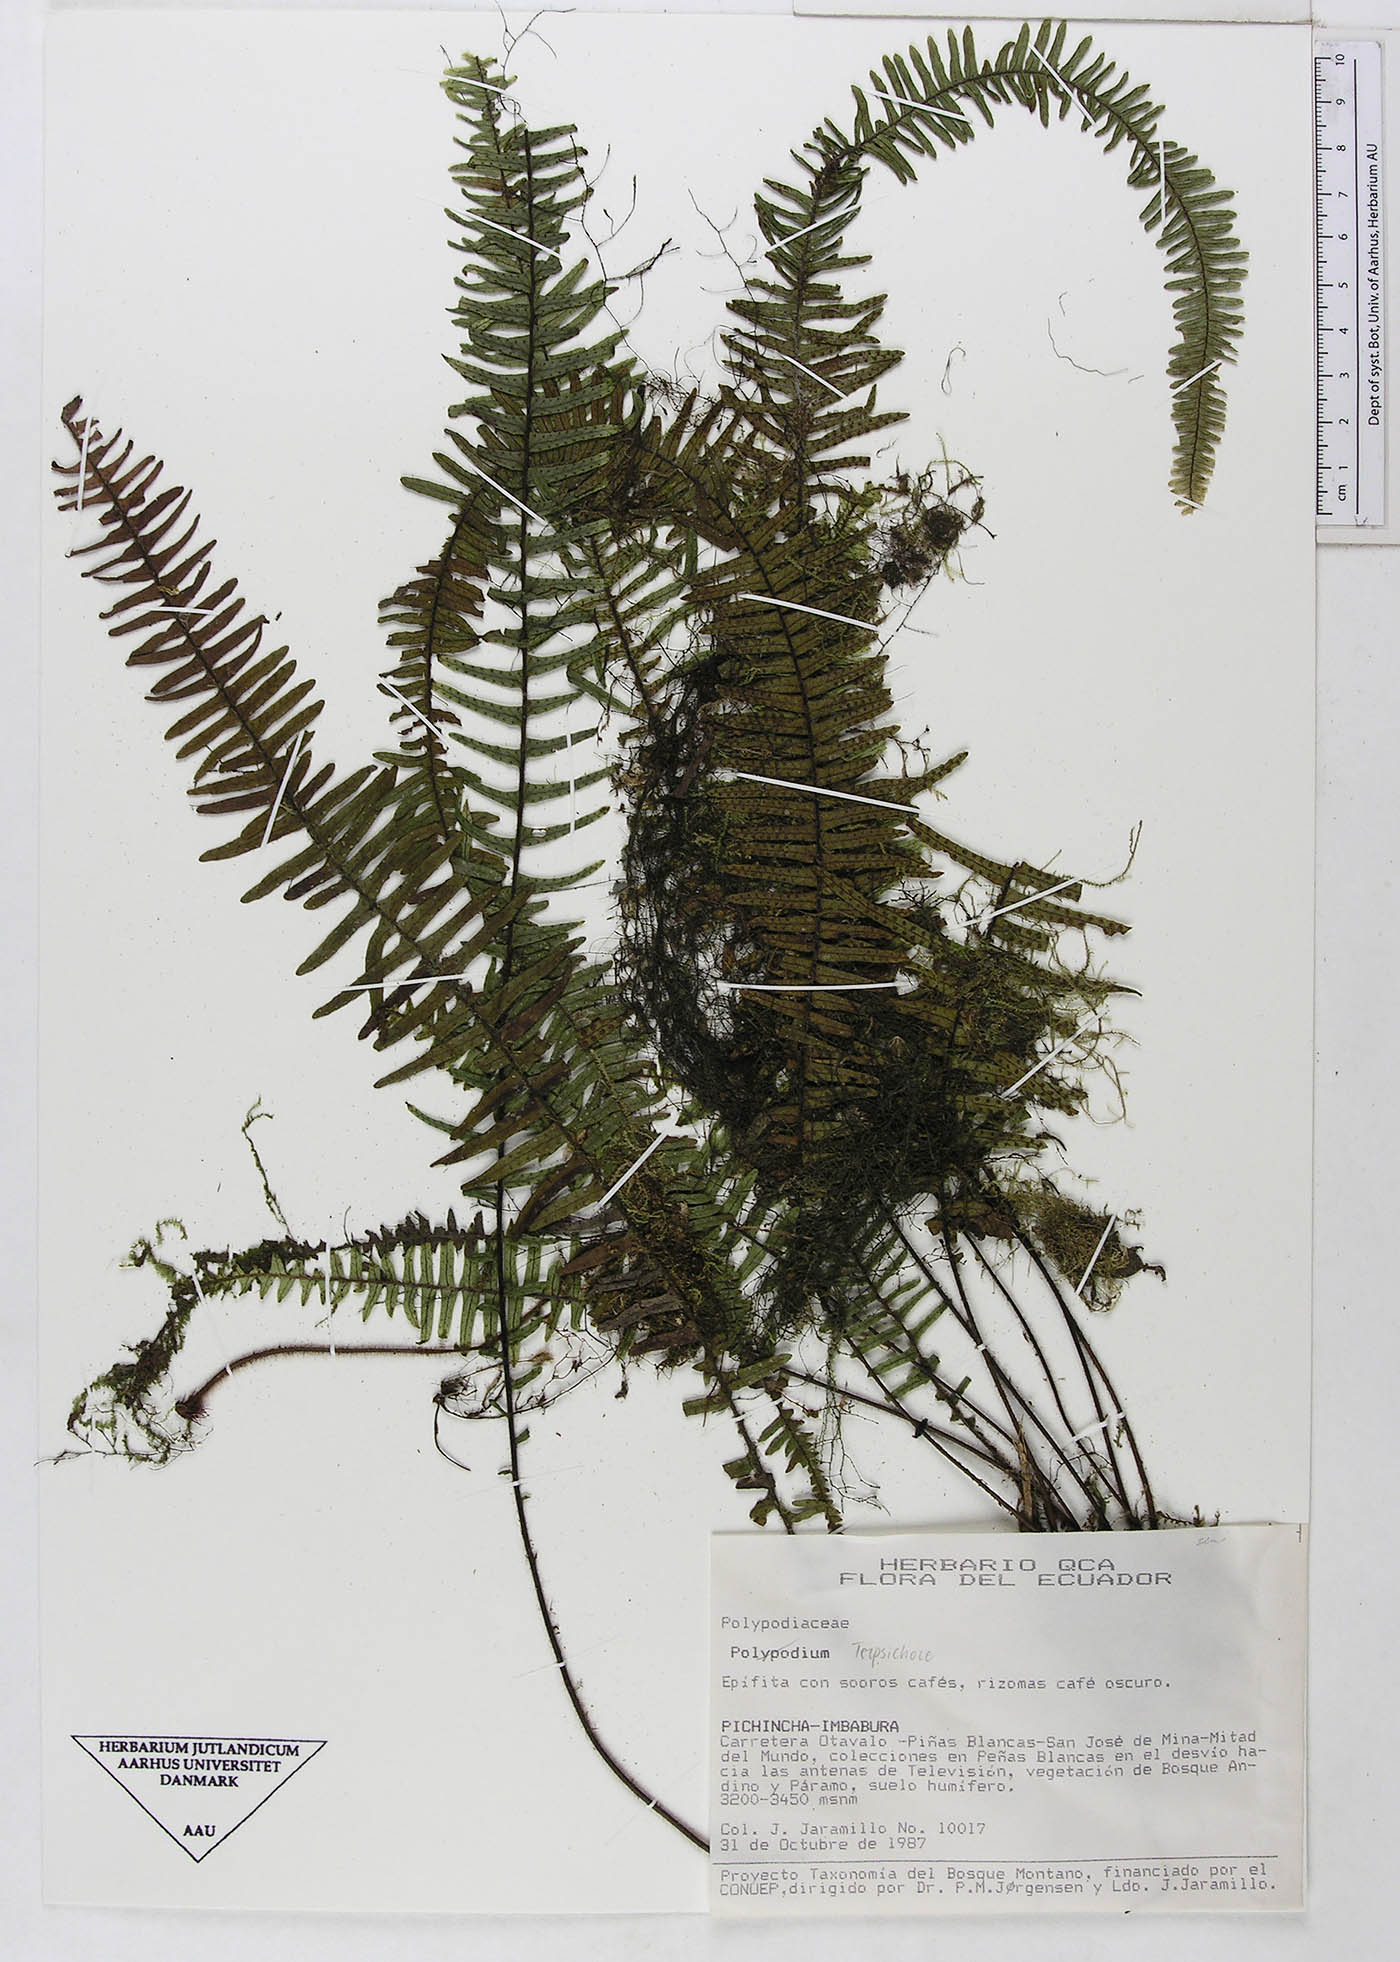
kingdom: Plantae
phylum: Tracheophyta
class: Polypodiopsida
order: Polypodiales
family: Polypodiaceae
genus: Terpsichore
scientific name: Terpsichore
